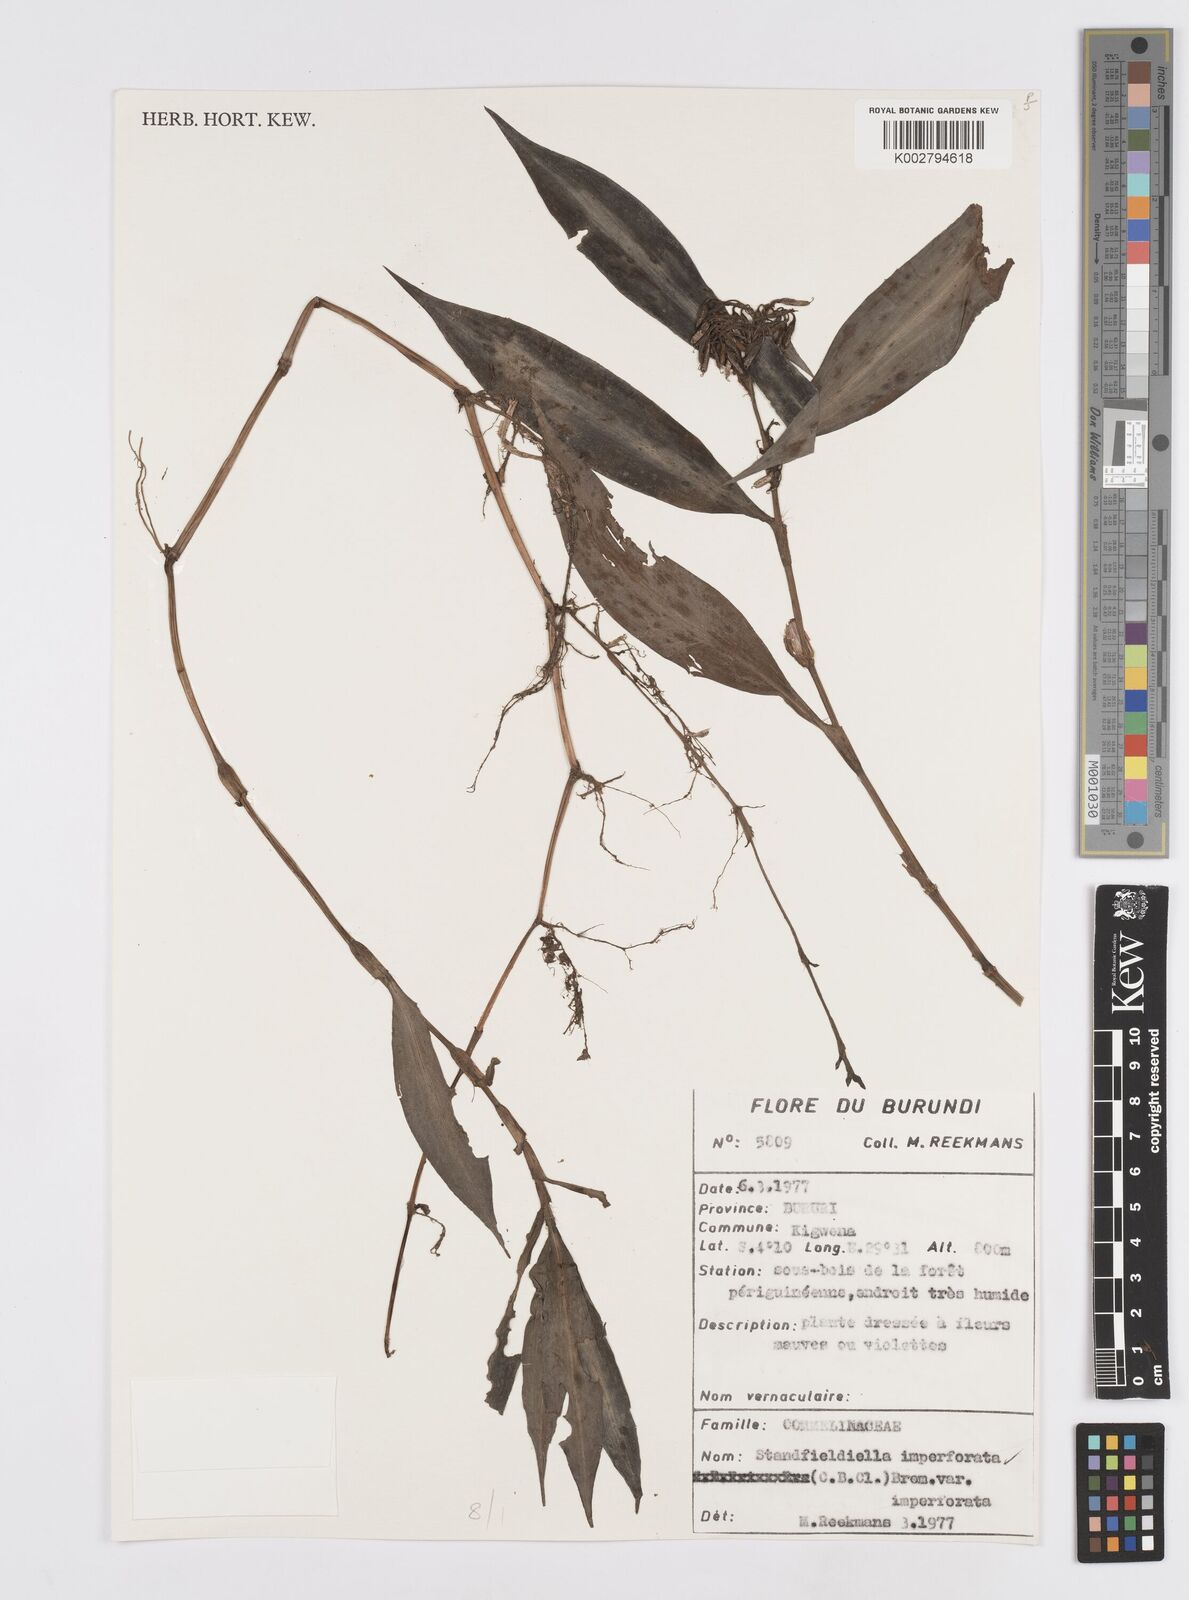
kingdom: Plantae
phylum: Tracheophyta
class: Liliopsida
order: Commelinales
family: Commelinaceae
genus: Stanfieldiella
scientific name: Stanfieldiella imperforata
